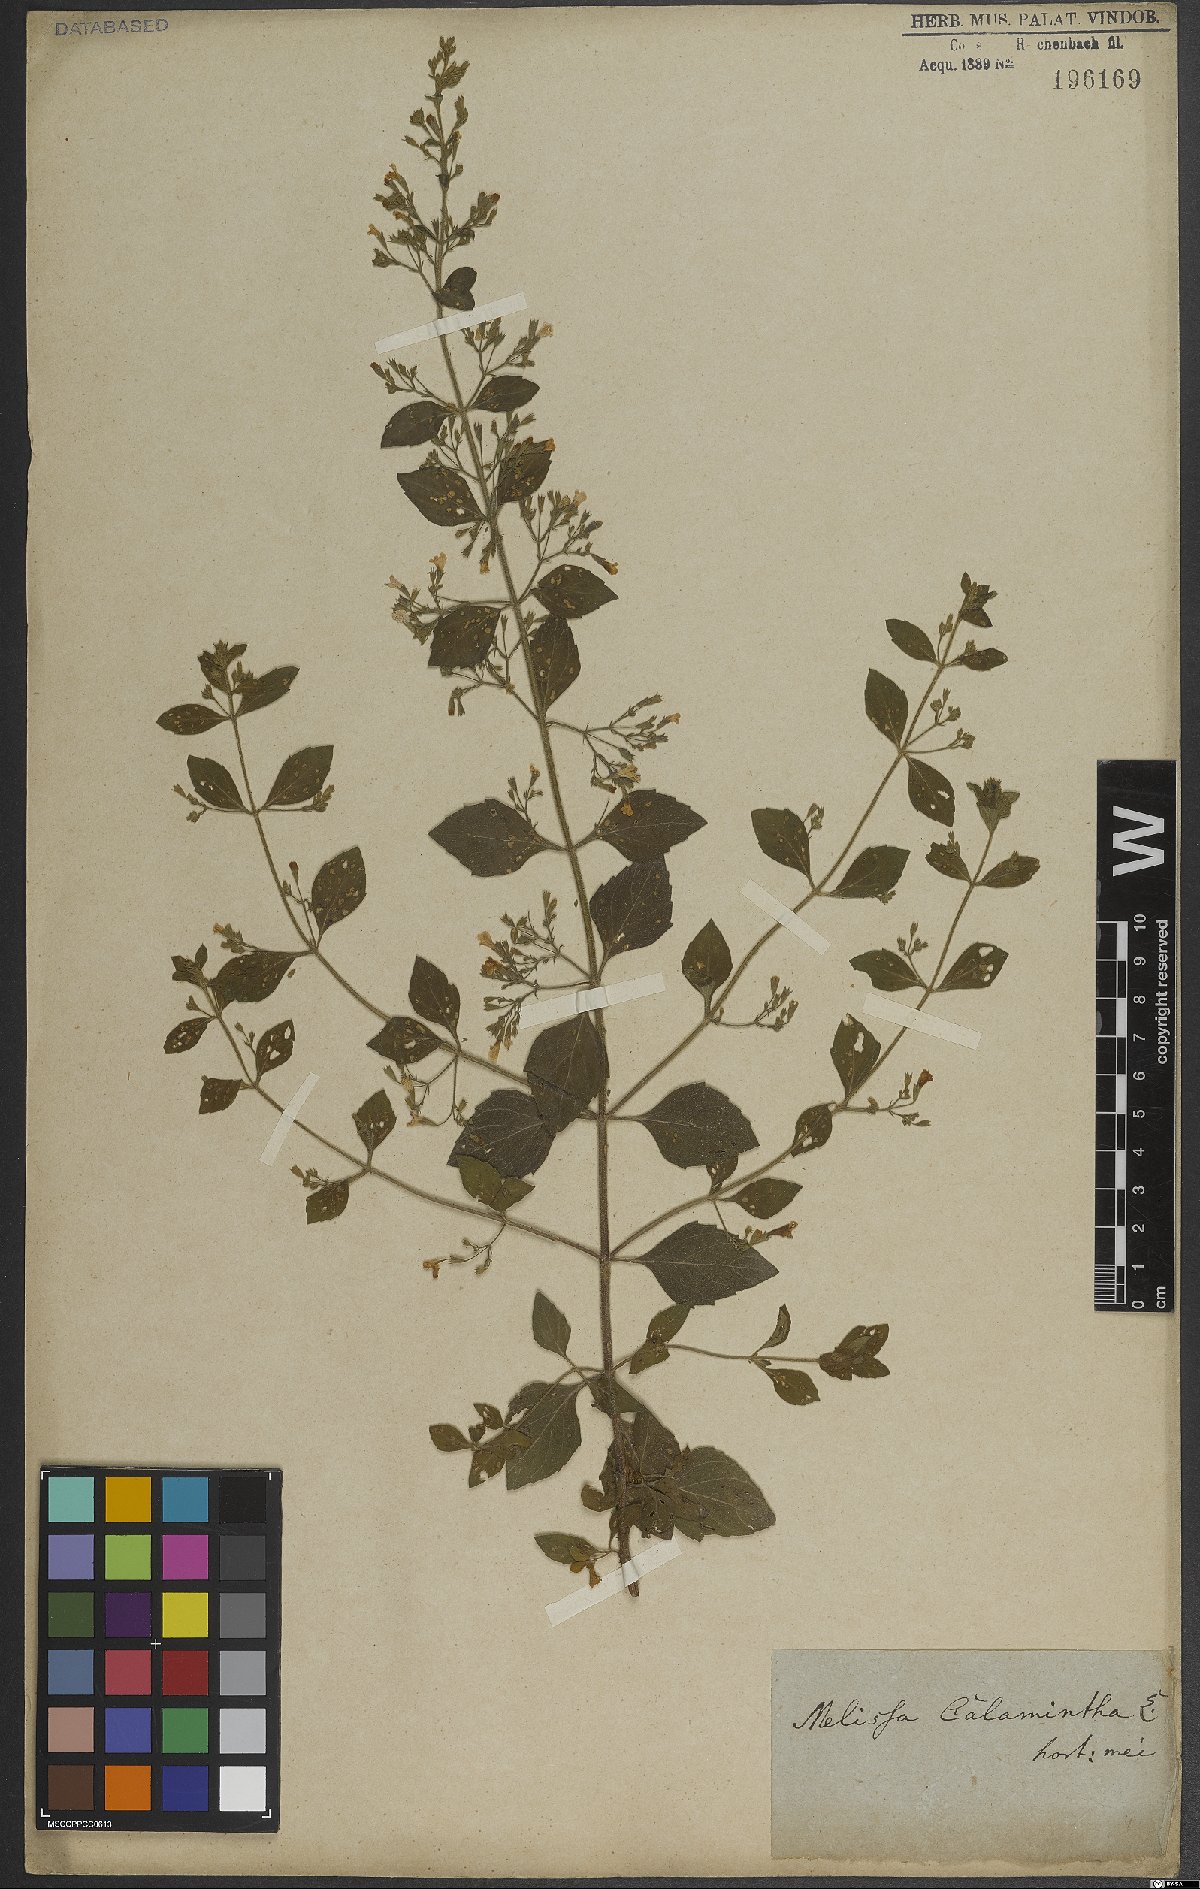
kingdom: Plantae
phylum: Tracheophyta
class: Magnoliopsida
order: Lamiales
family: Lamiaceae
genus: Clinopodium
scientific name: Clinopodium menthifolium
